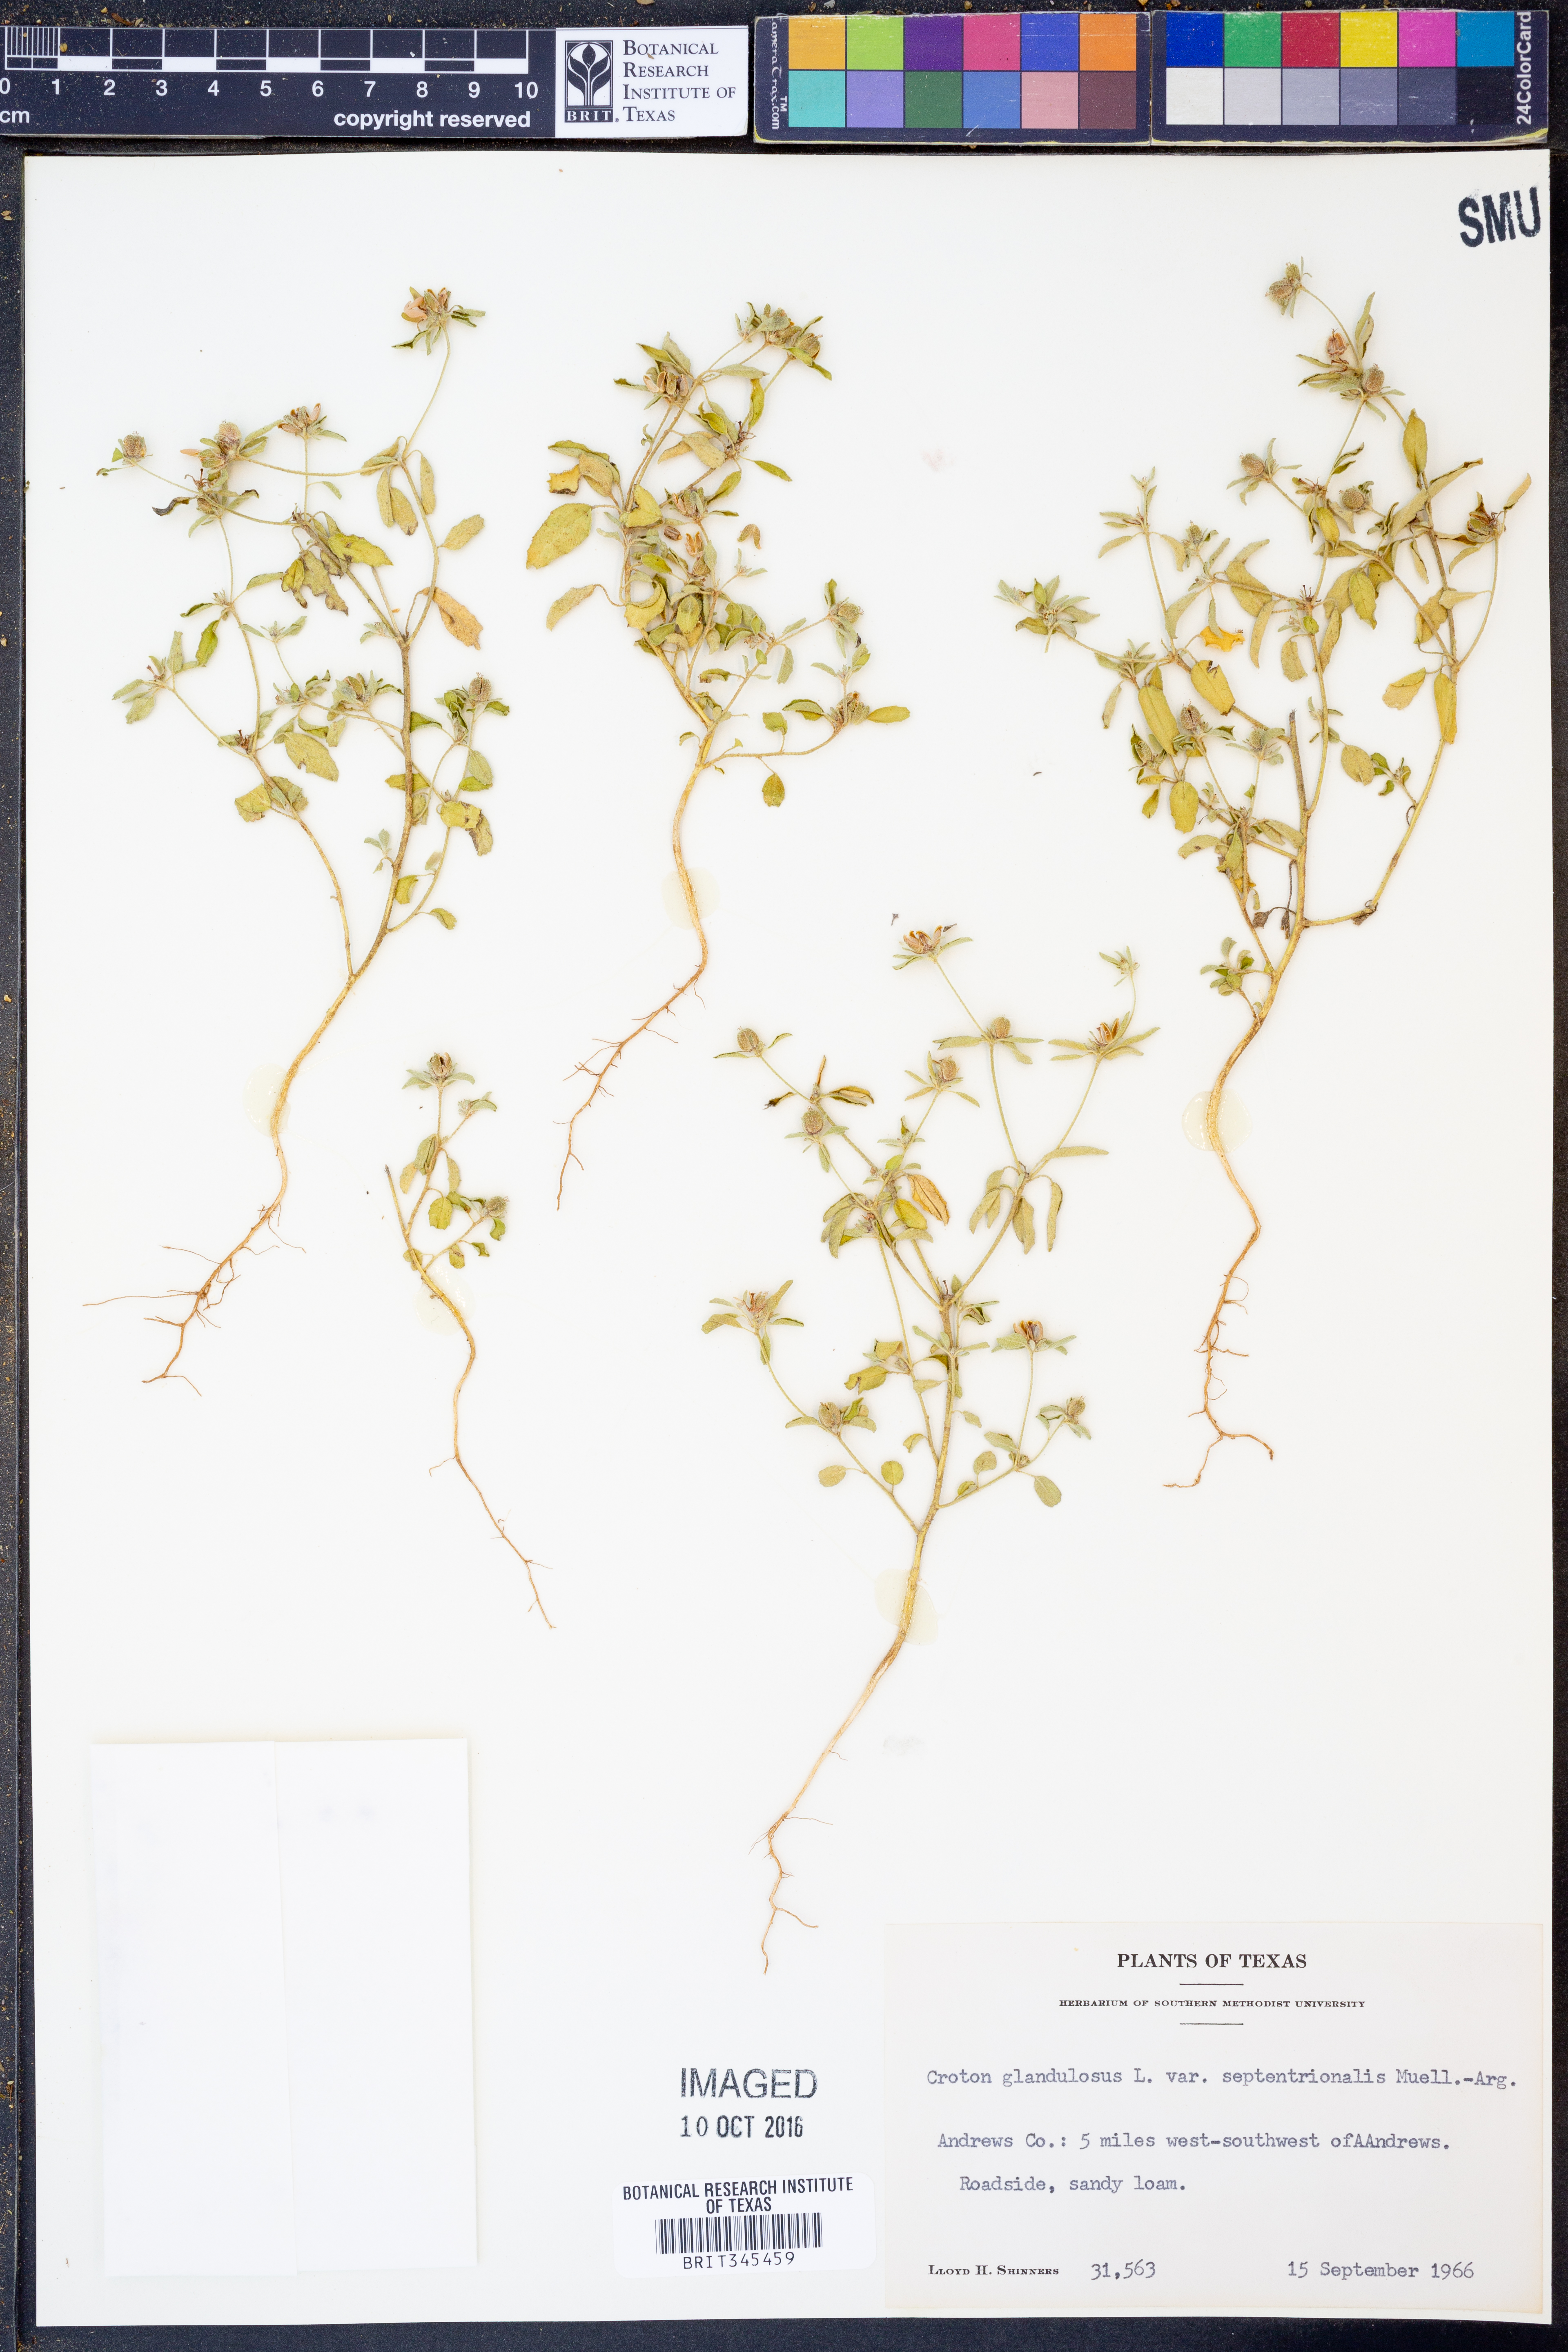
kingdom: Plantae
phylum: Tracheophyta
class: Magnoliopsida
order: Malpighiales
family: Euphorbiaceae
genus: Croton
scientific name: Croton glandulosus
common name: Tropic croton
